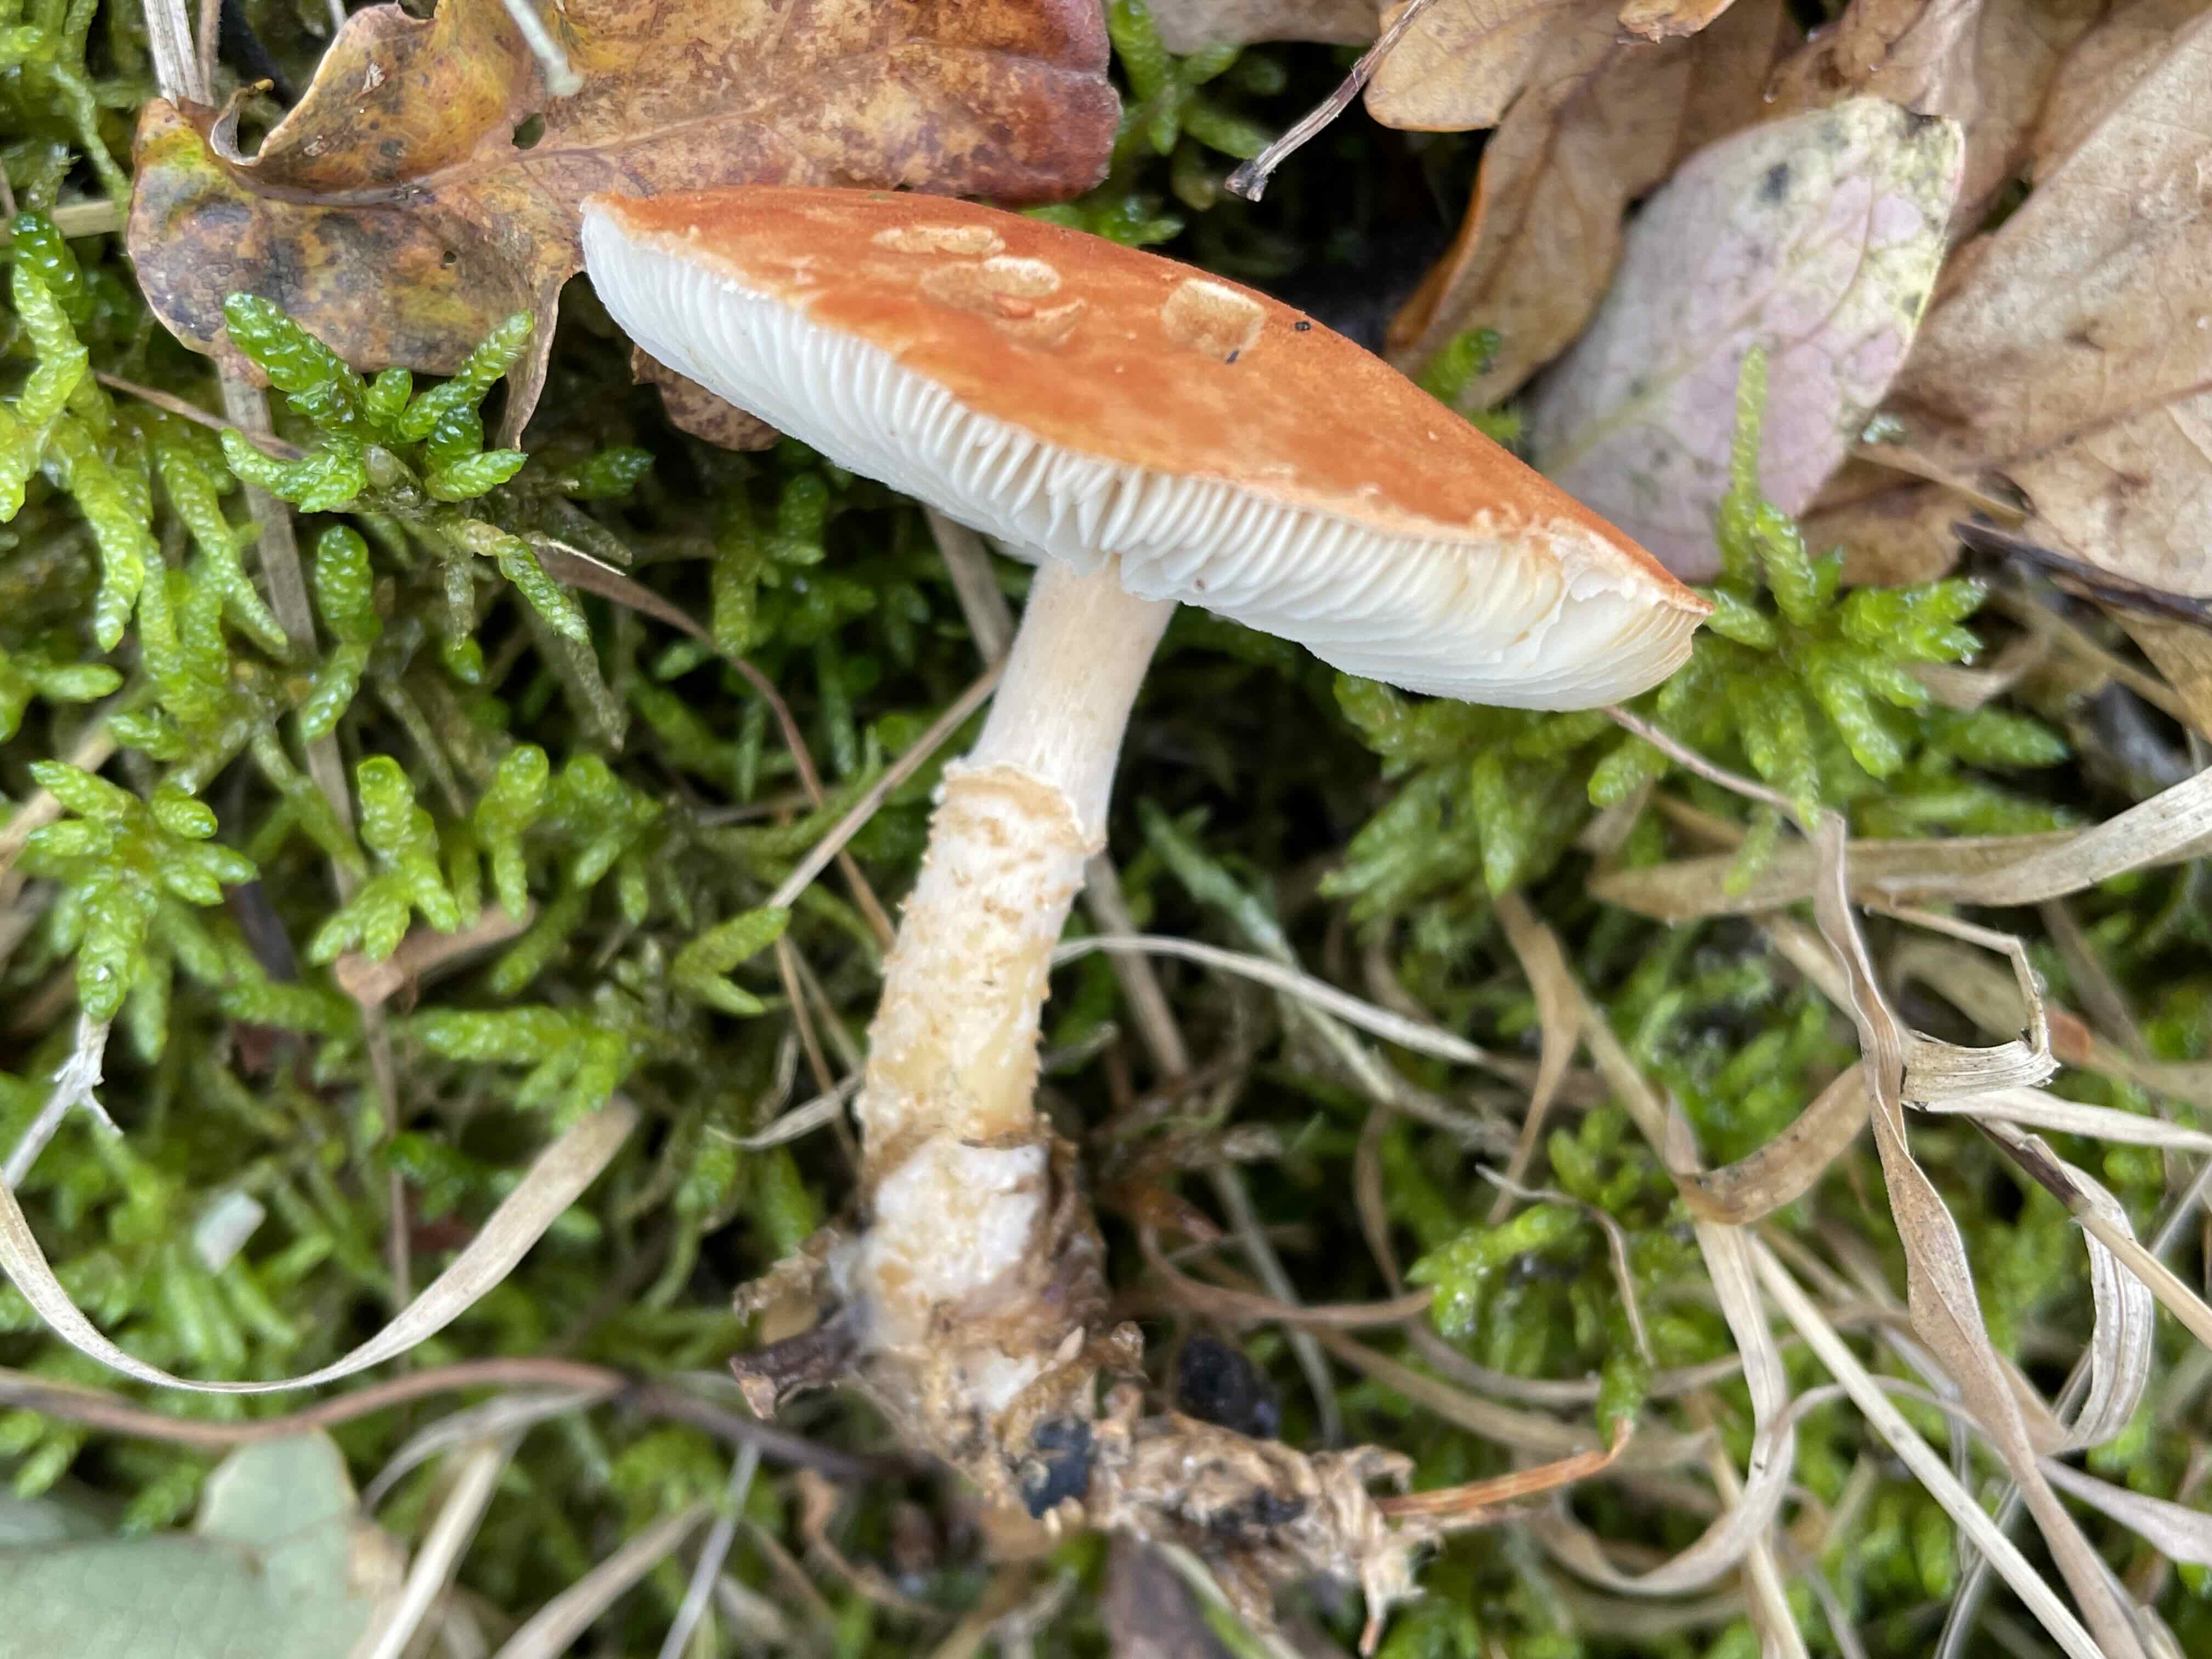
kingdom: Fungi
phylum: Basidiomycota
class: Agaricomycetes
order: Agaricales
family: Agaricaceae
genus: Cystodermella
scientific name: Cystodermella cinnabarina
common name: cinnober-grynhat
